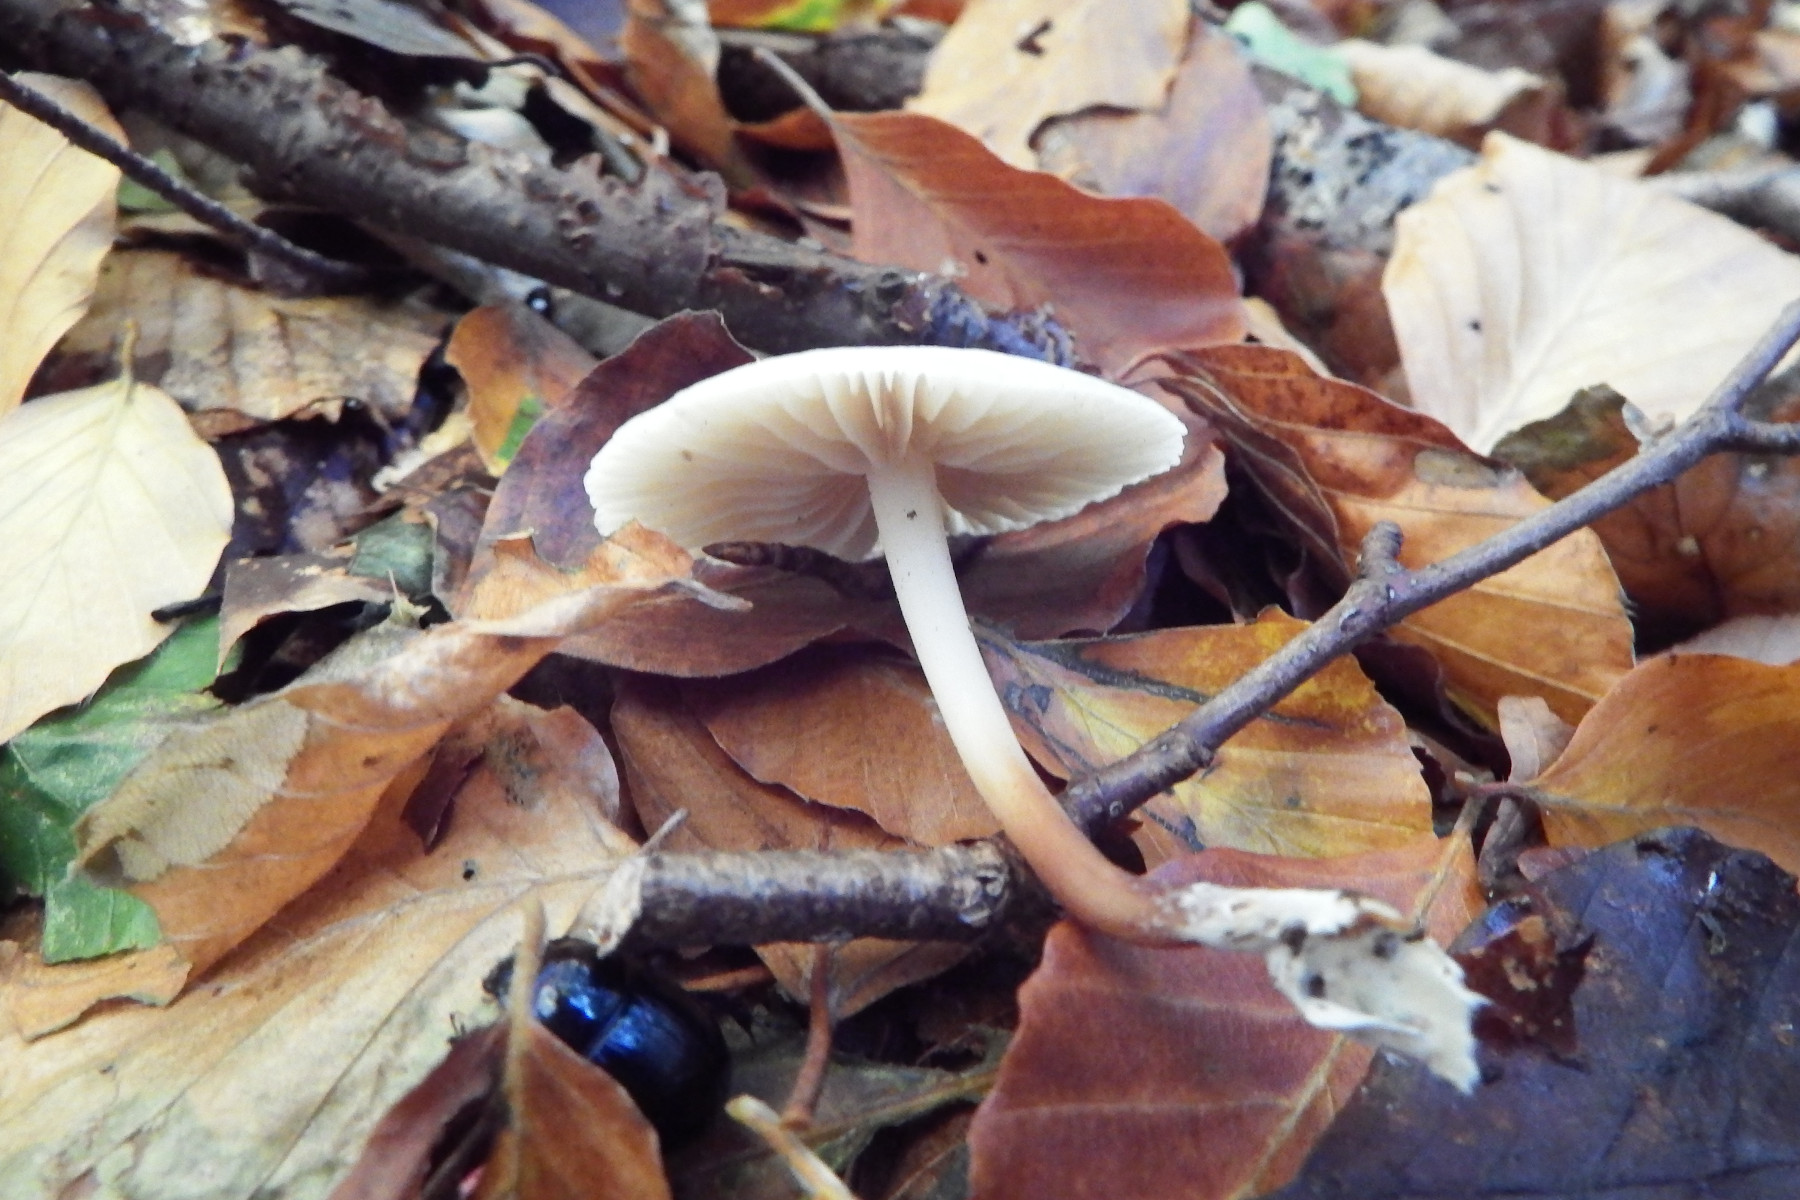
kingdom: Fungi
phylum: Basidiomycota
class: Agaricomycetes
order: Agaricales
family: Marasmiaceae
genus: Marasmius
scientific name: Marasmius wynneae
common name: hvælvet bruskhat
